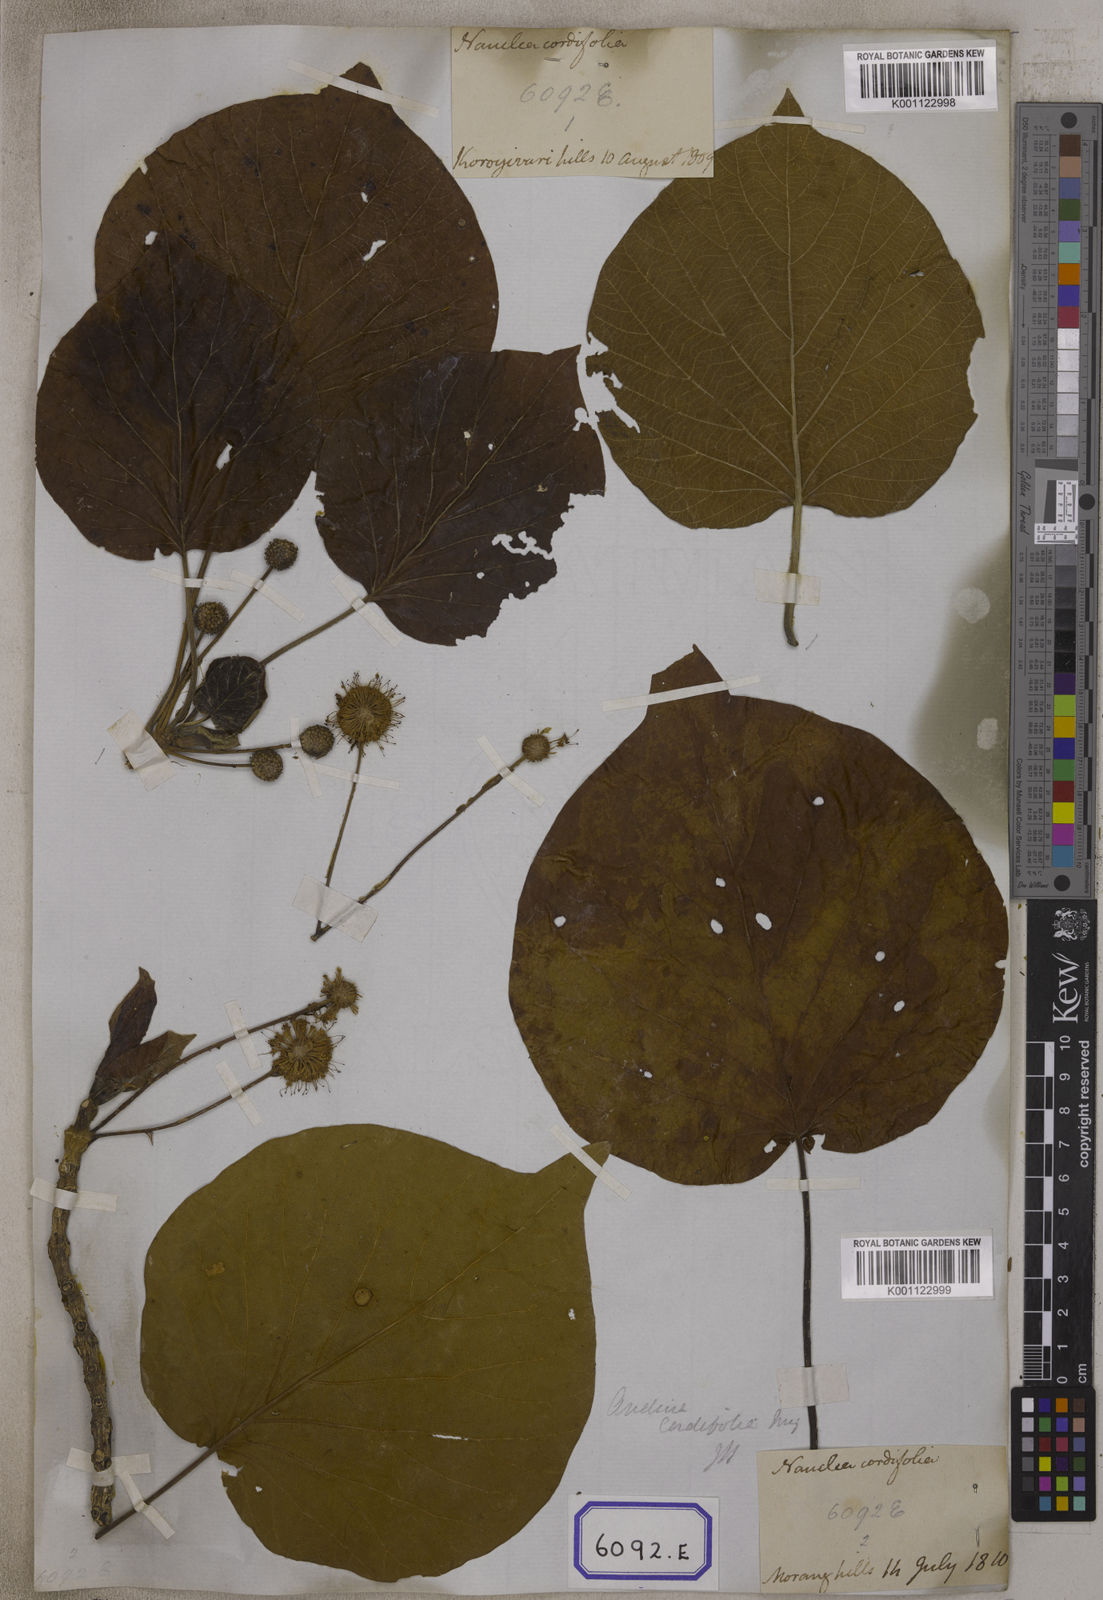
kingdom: Plantae
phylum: Tracheophyta
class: Magnoliopsida
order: Gentianales
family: Rubiaceae
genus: Adina
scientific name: Adina cordifolia
